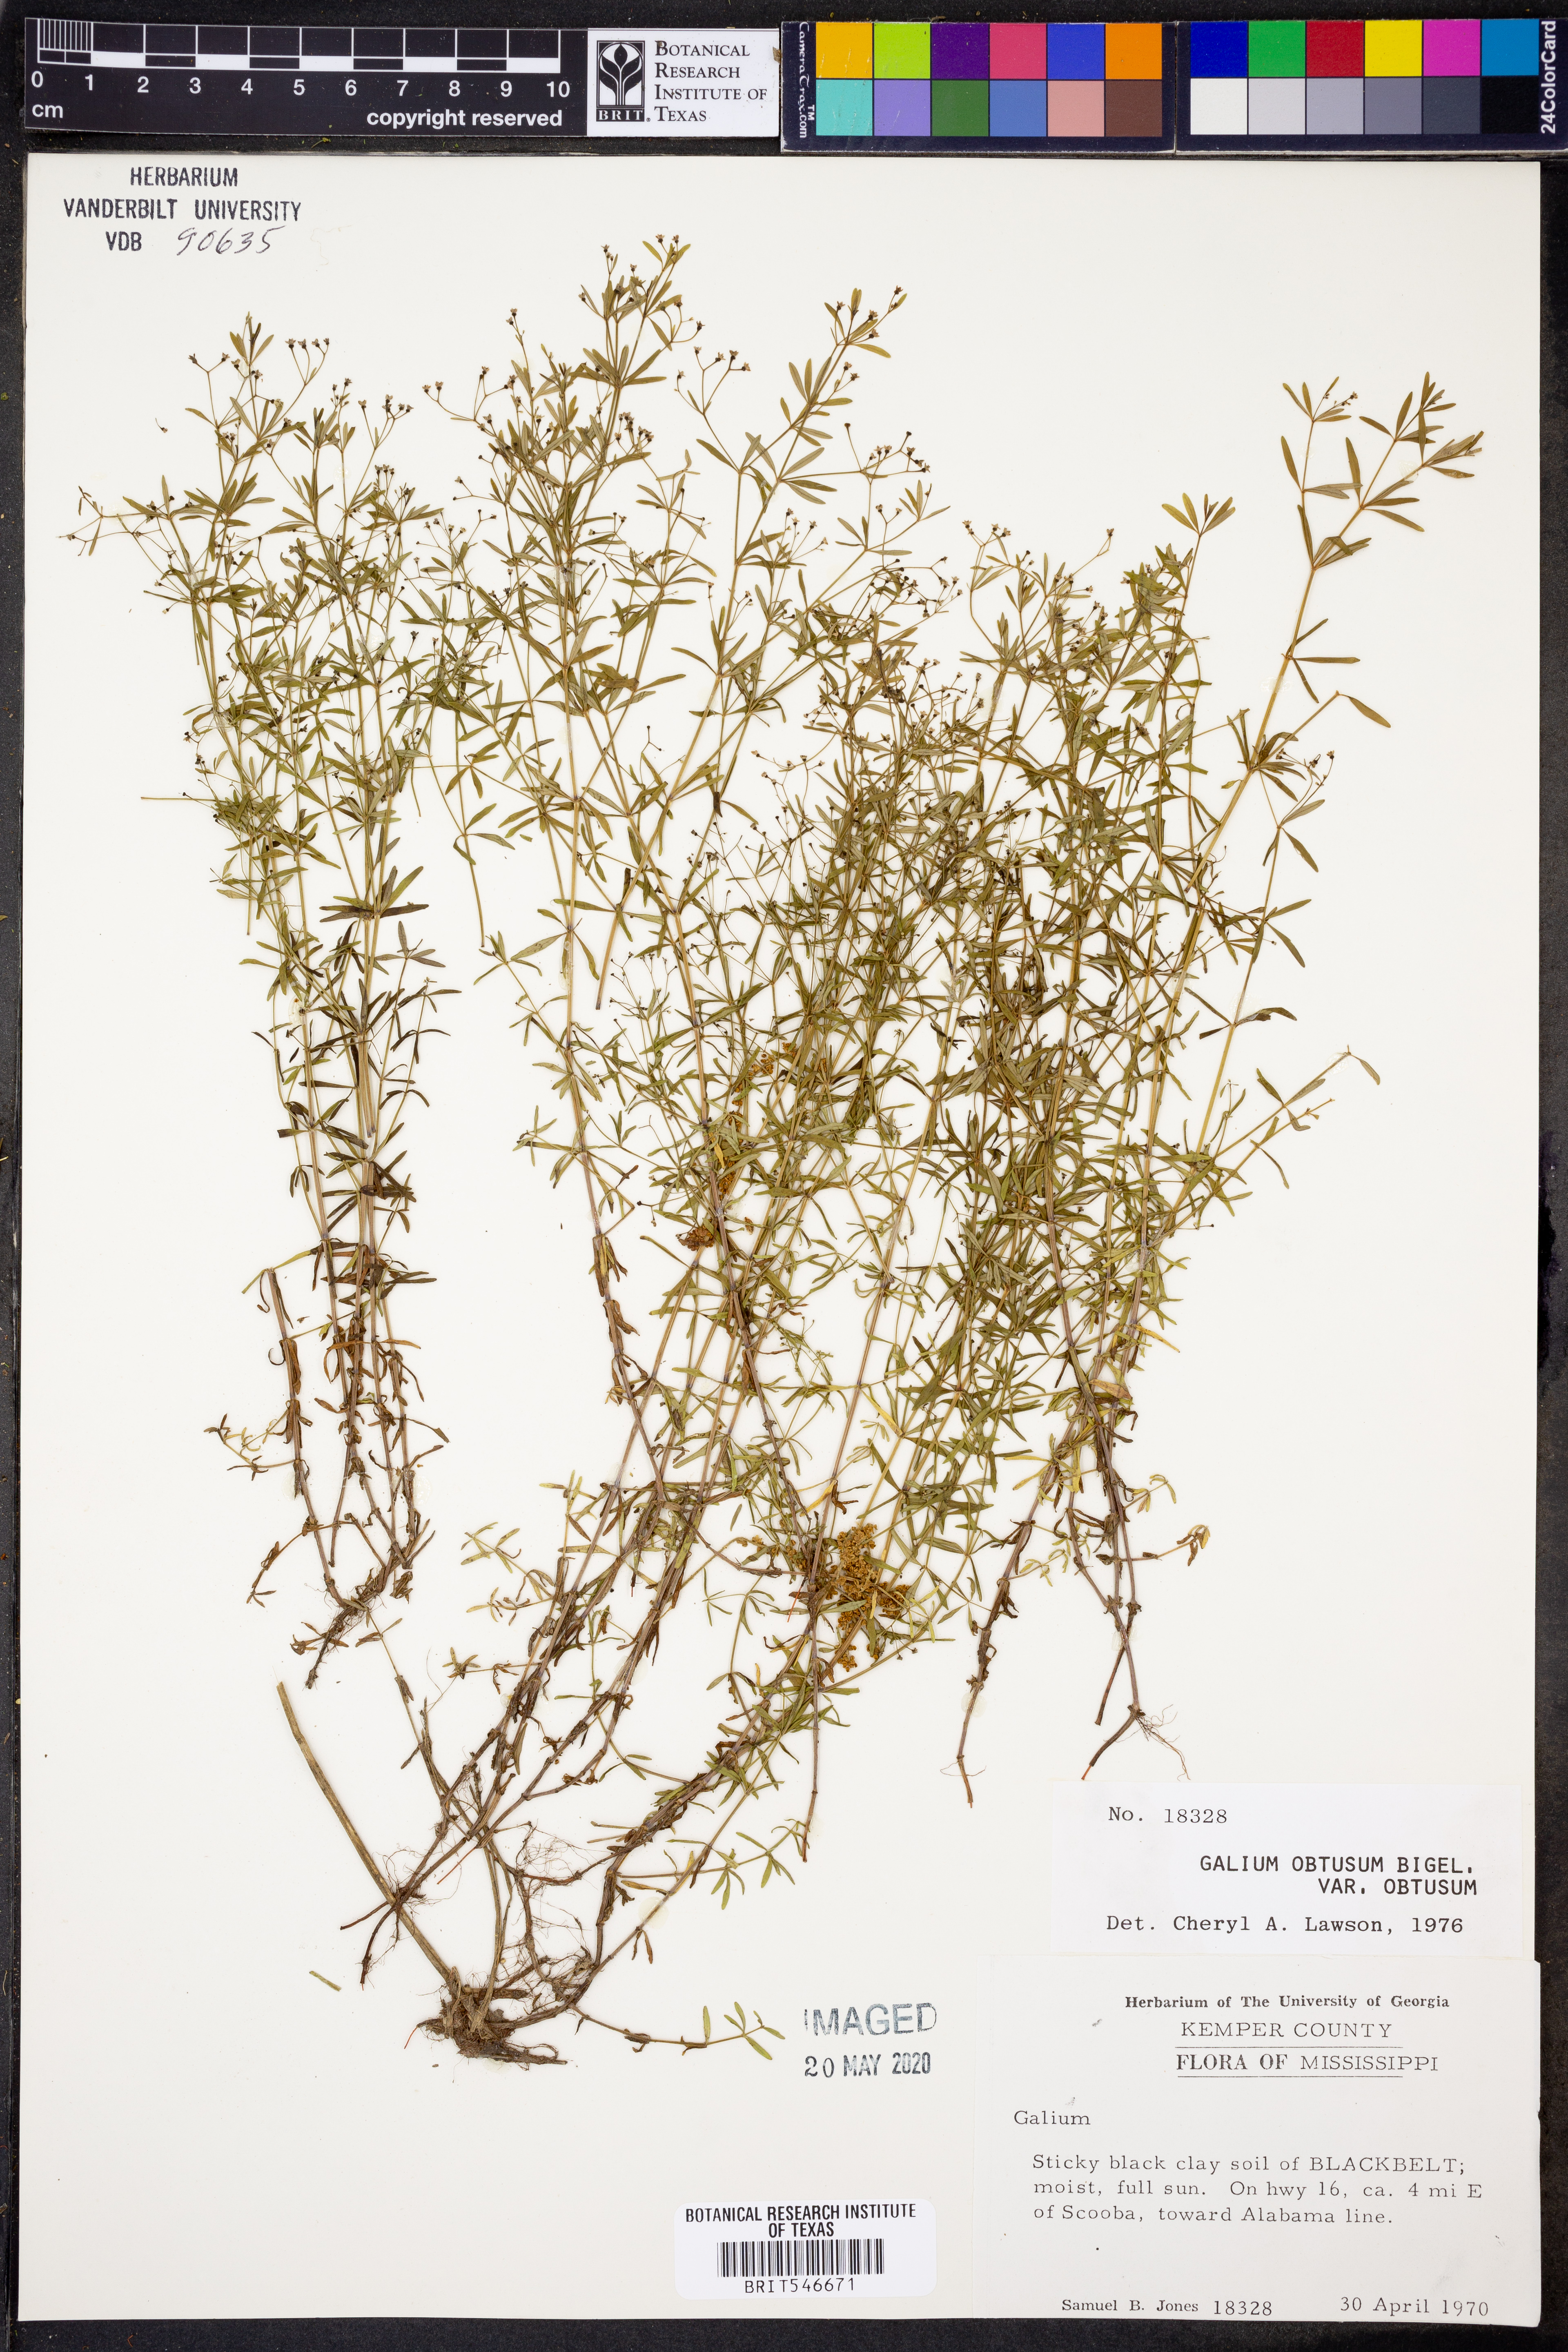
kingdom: Plantae
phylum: Tracheophyta
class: Magnoliopsida
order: Gentianales
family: Rubiaceae
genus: Galium
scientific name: Galium obtusum
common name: Blunt-leaved bedstraw
